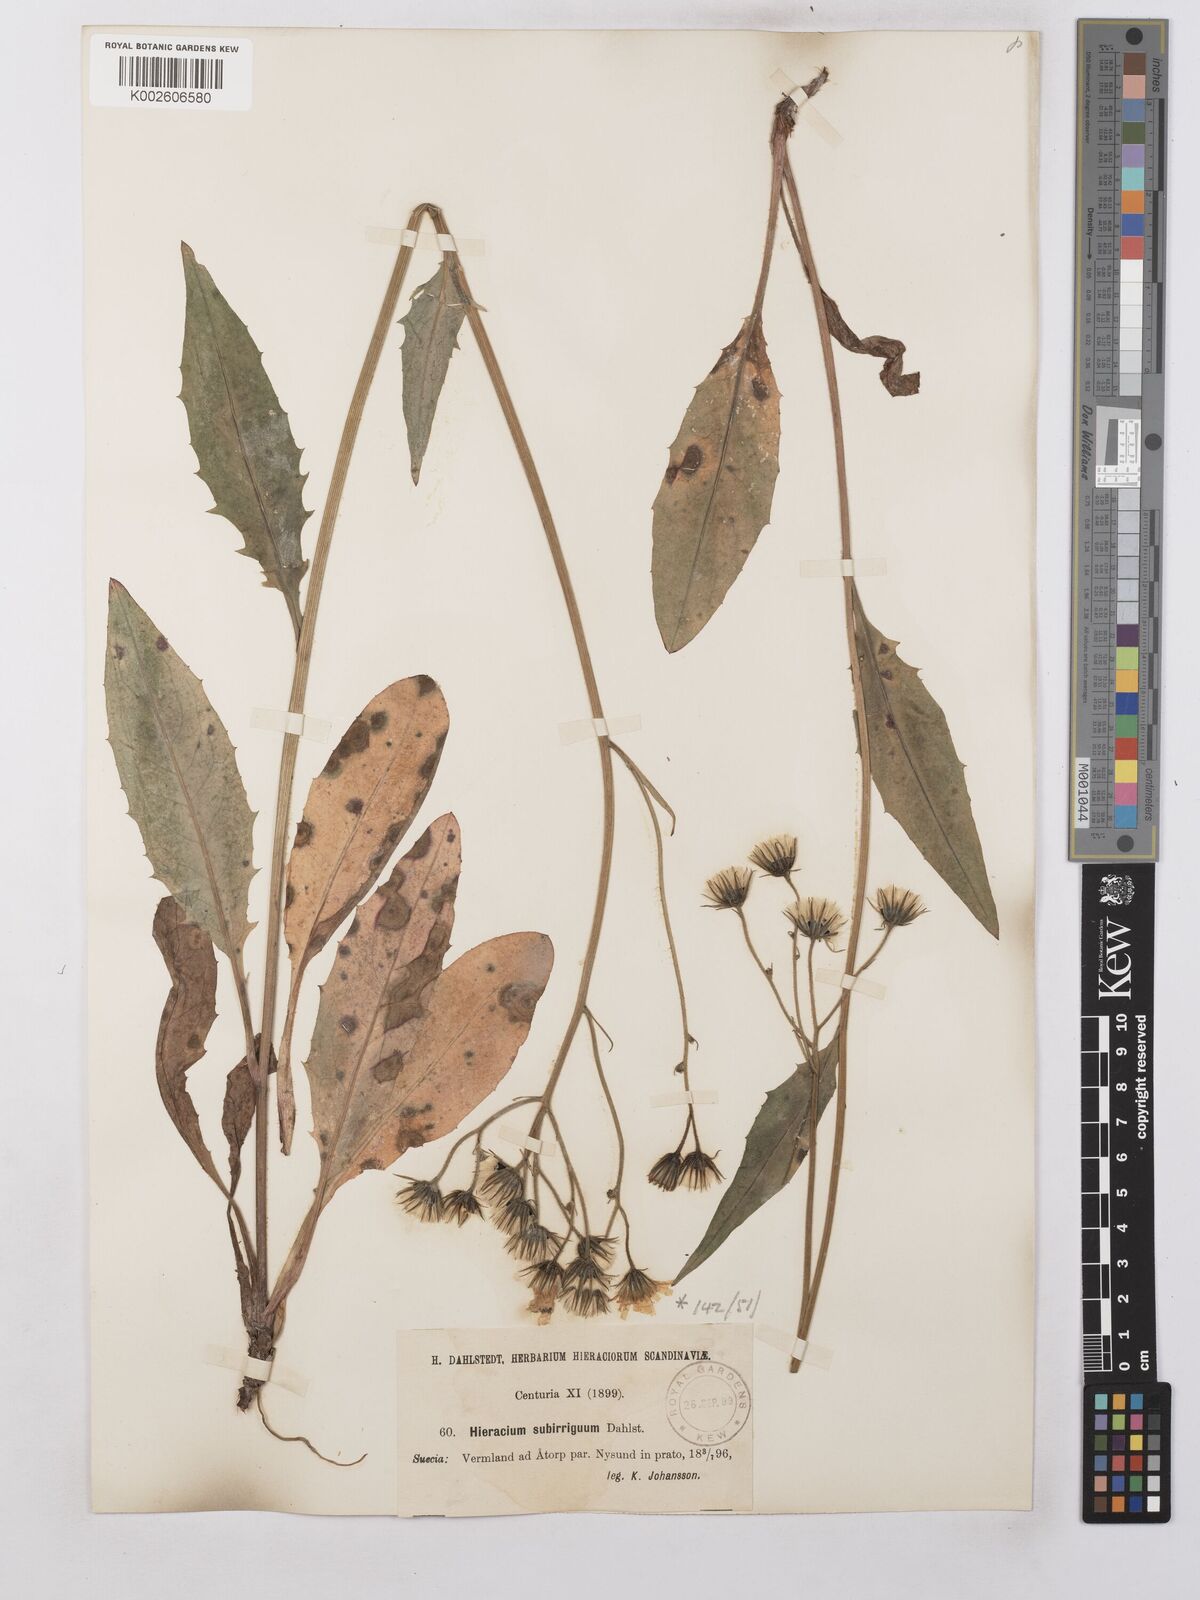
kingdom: Plantae
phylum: Tracheophyta
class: Magnoliopsida
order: Asterales
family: Asteraceae
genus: Hieracium
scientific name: Hieracium lachenalii
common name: Common hawkweed
